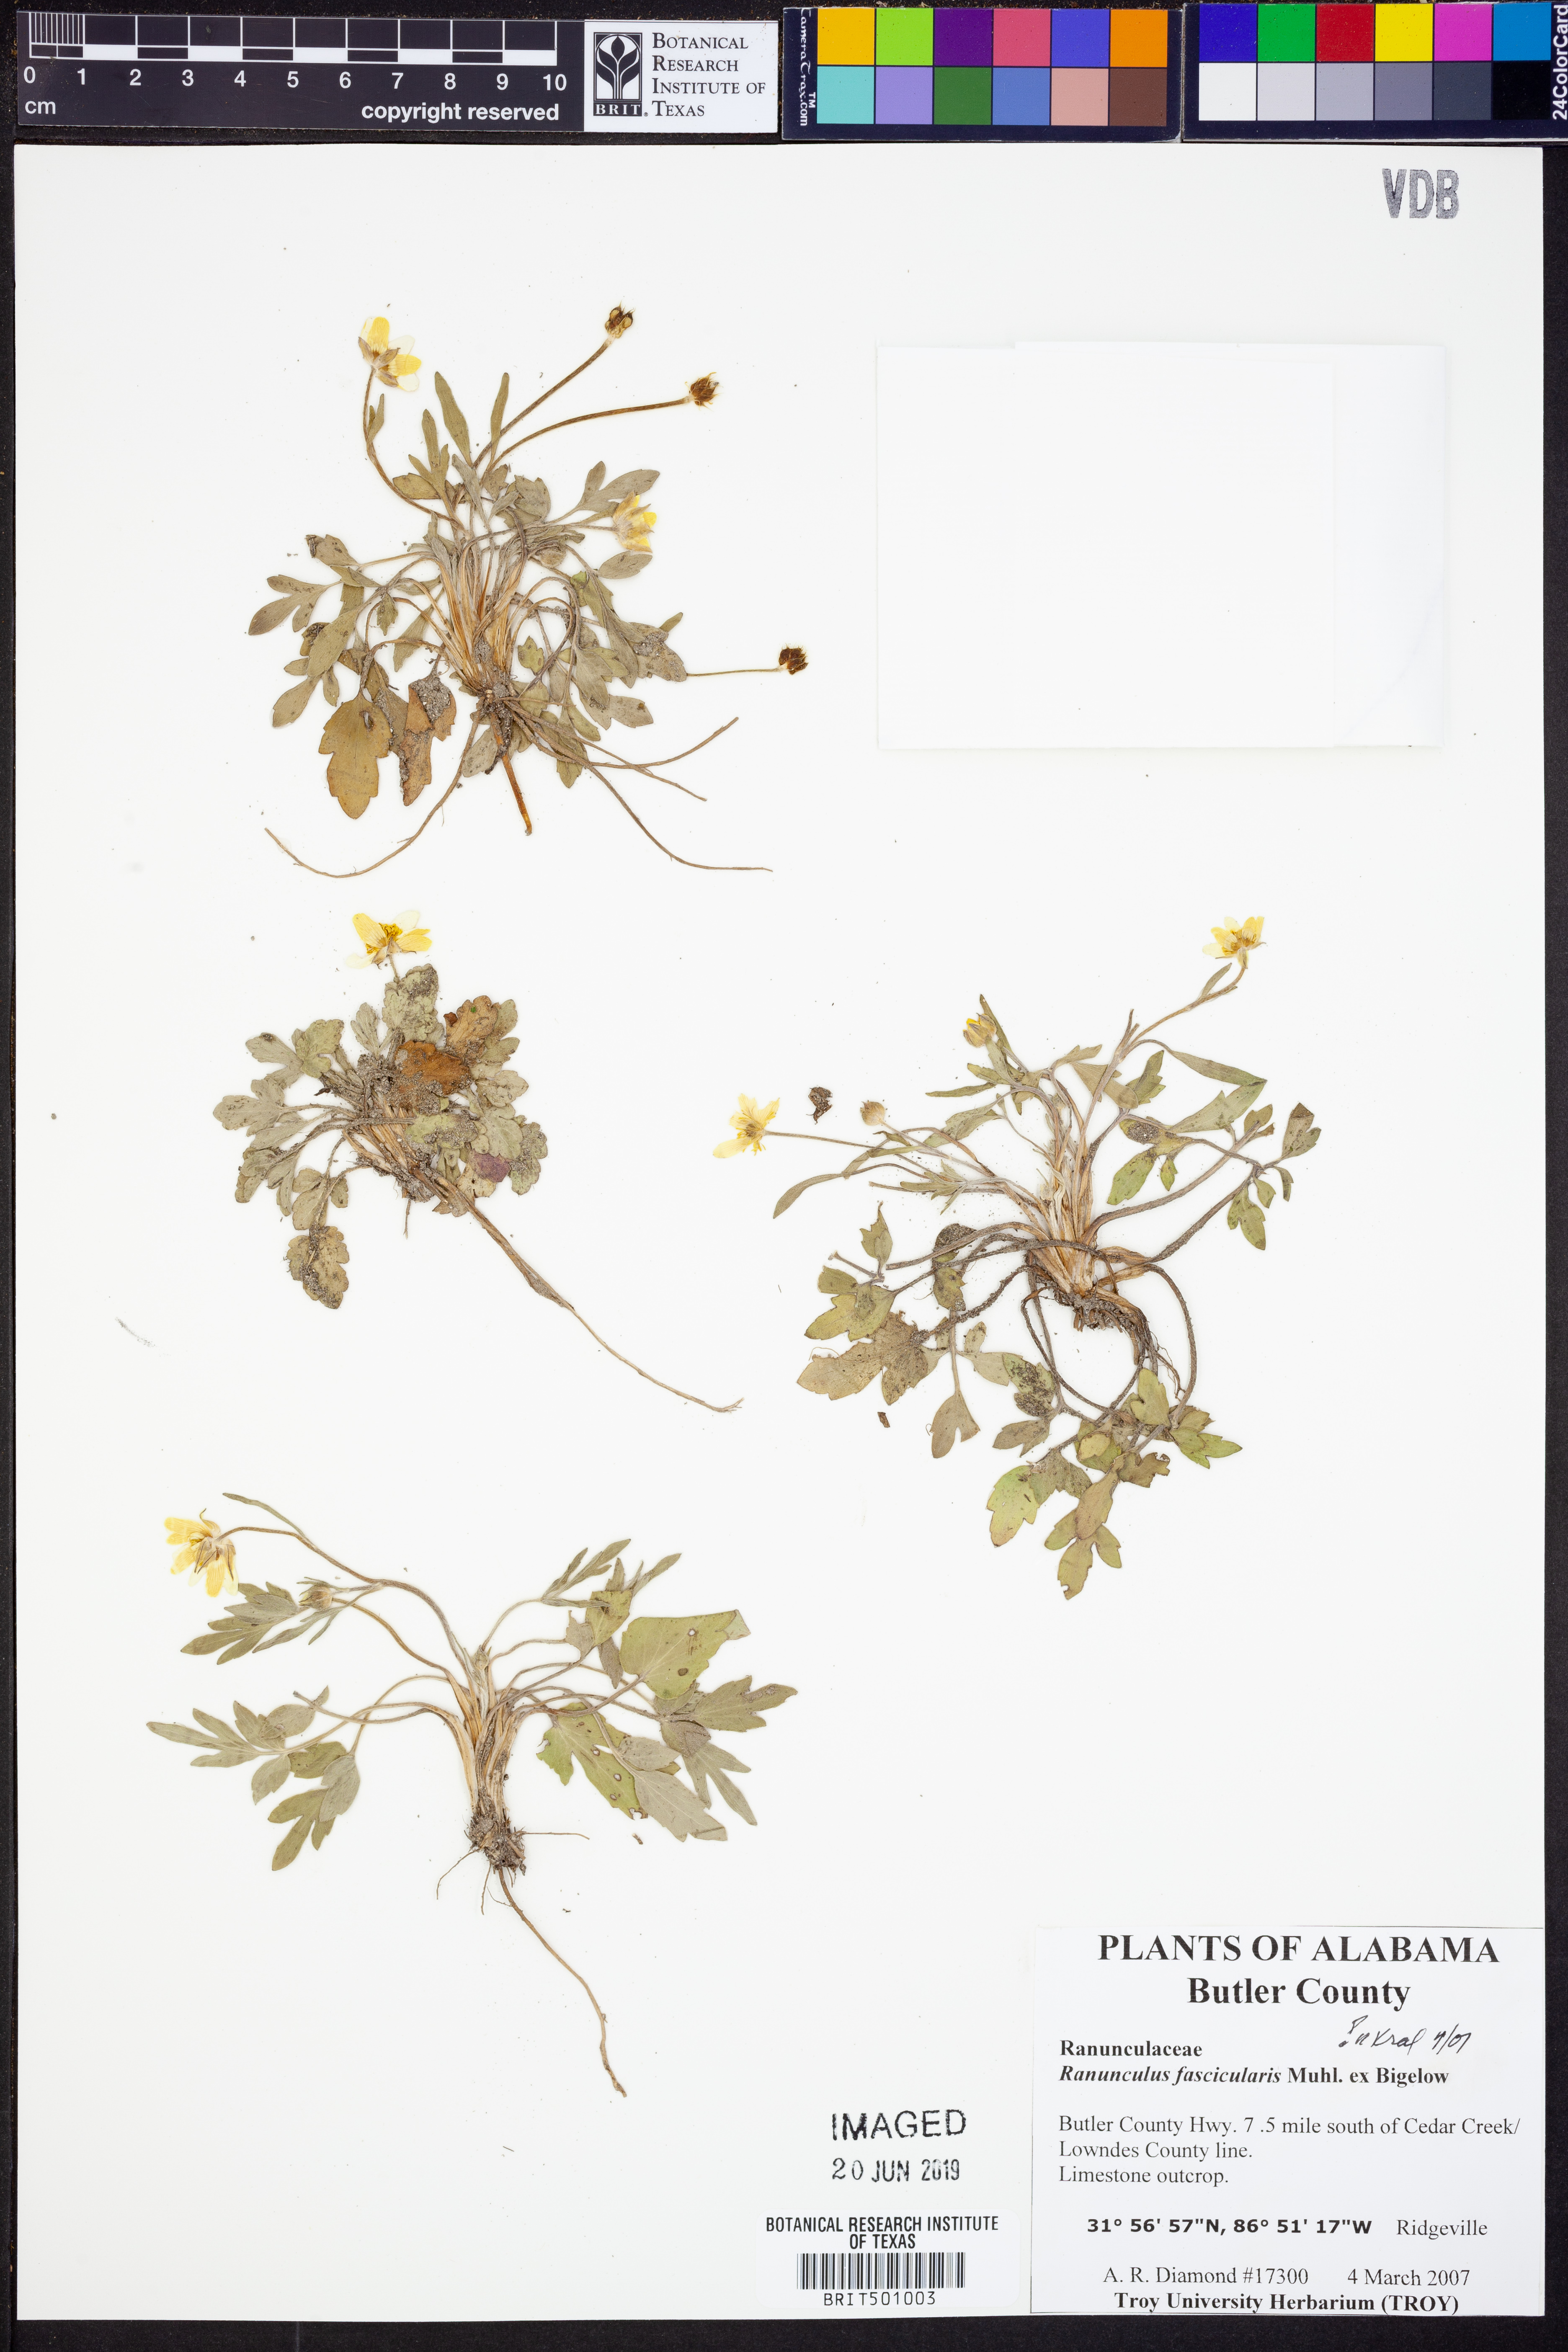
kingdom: Plantae
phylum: Tracheophyta
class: Magnoliopsida
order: Ranunculales
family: Ranunculaceae
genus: Ranunculus
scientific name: Ranunculus fascicularis
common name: Early buttercup
